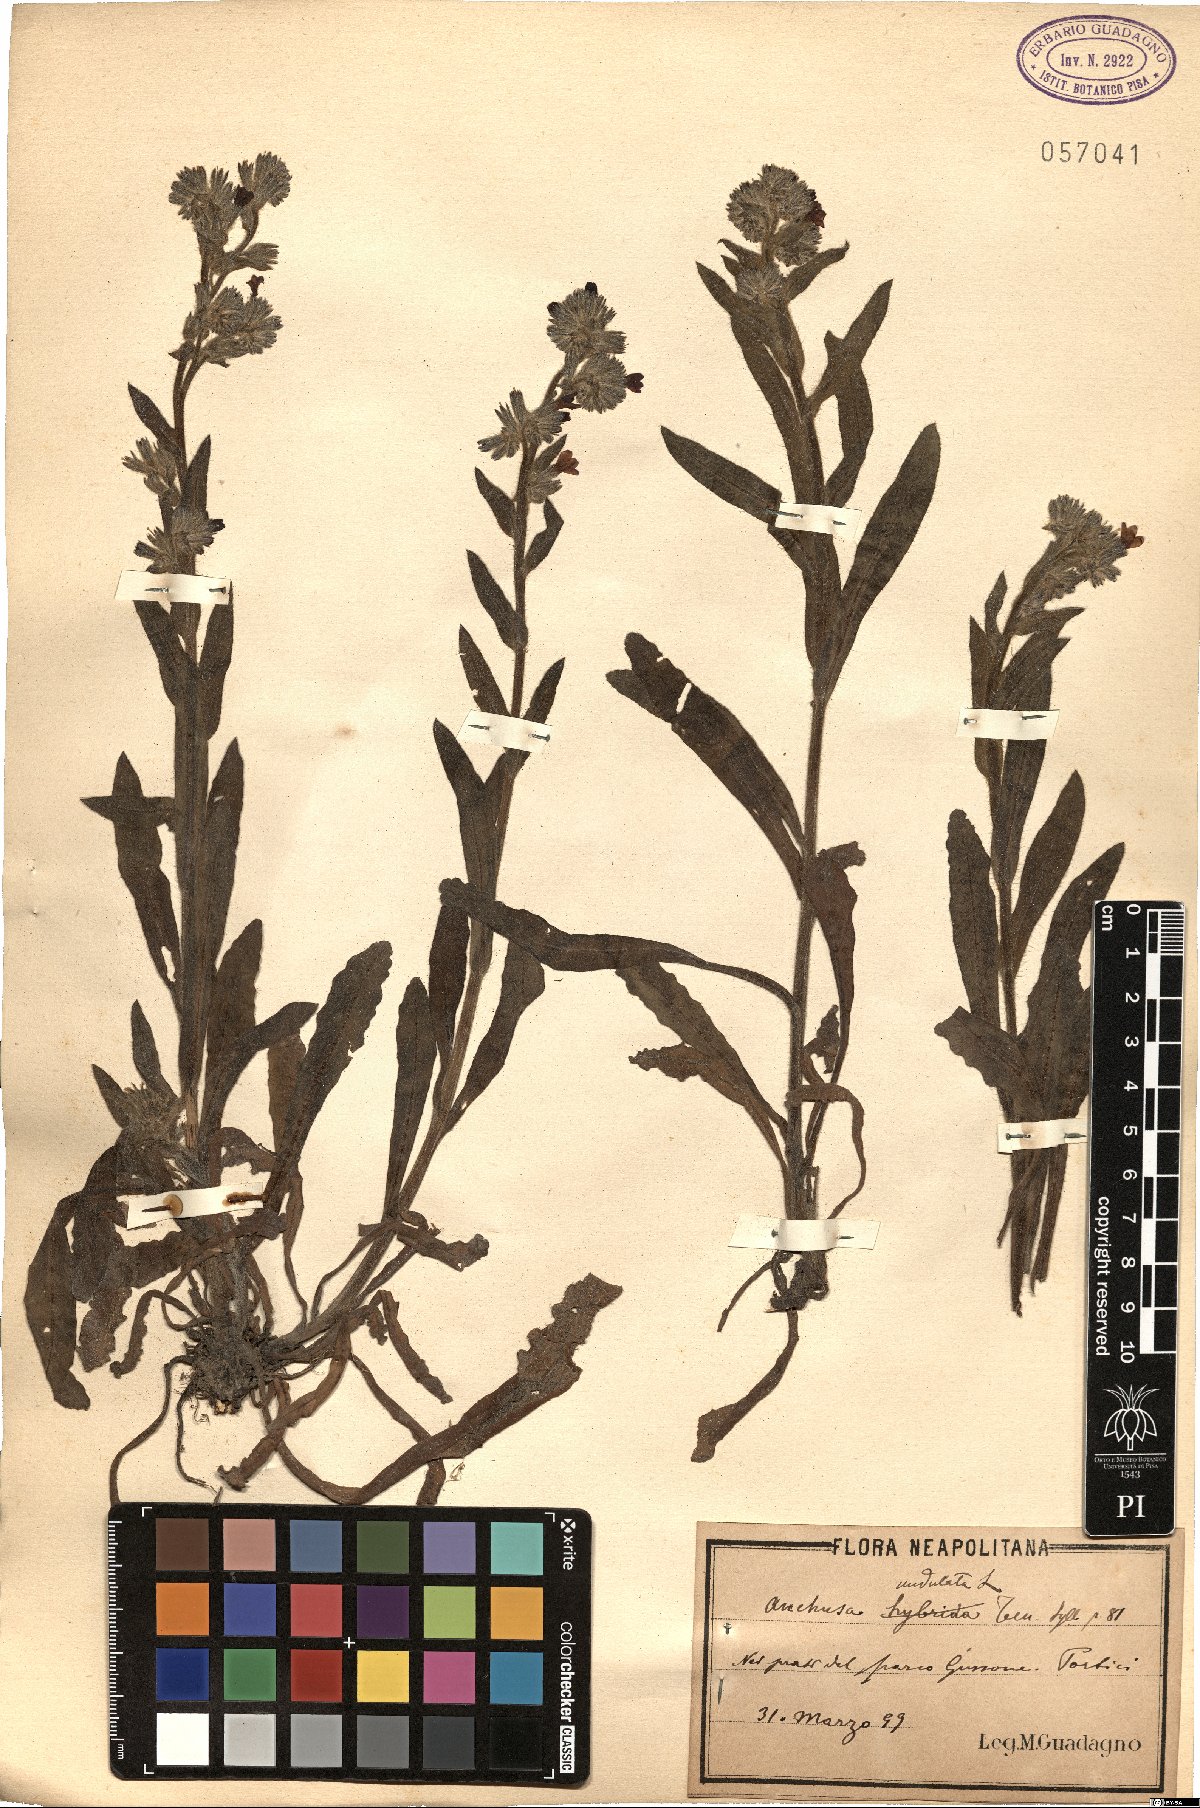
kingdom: Plantae
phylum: Tracheophyta
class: Magnoliopsida
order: Boraginales
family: Boraginaceae
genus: Anchusa
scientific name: Anchusa undulata
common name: Undulate alkanet
